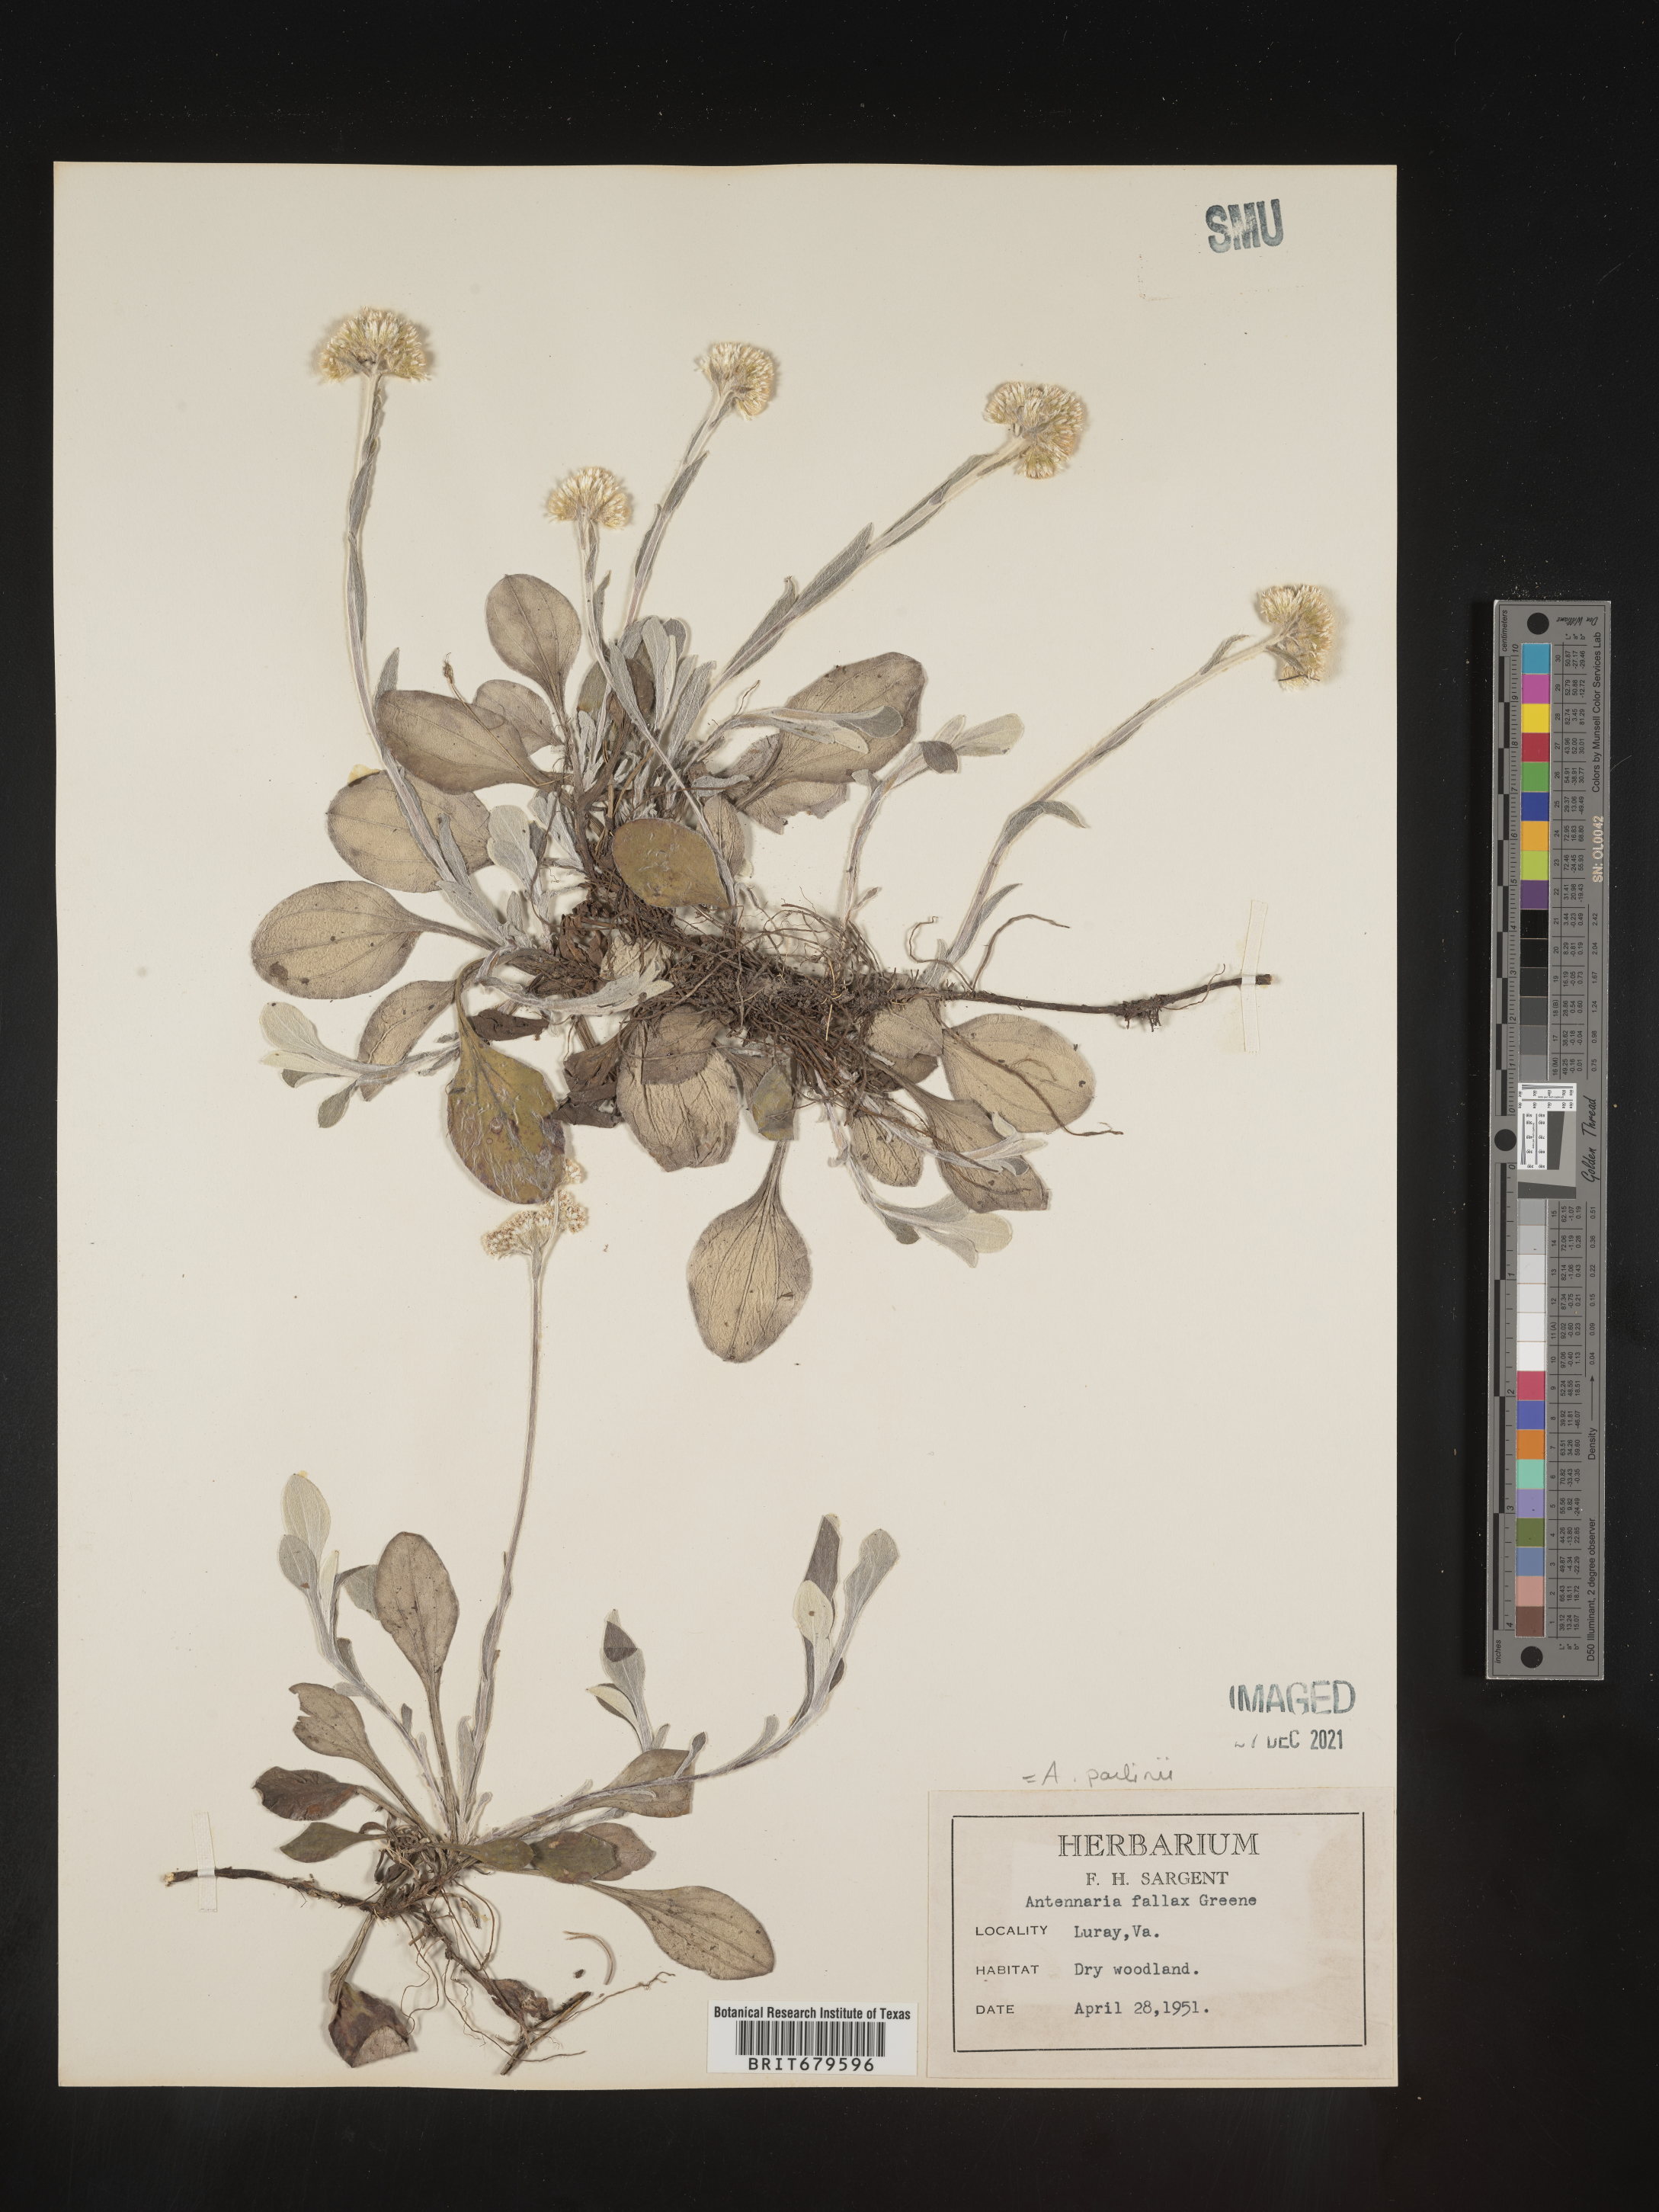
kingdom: Plantae
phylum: Tracheophyta
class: Magnoliopsida
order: Asterales
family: Asteraceae
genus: Antennaria
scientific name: Antennaria parlinii
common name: Parlin's pussytoes
